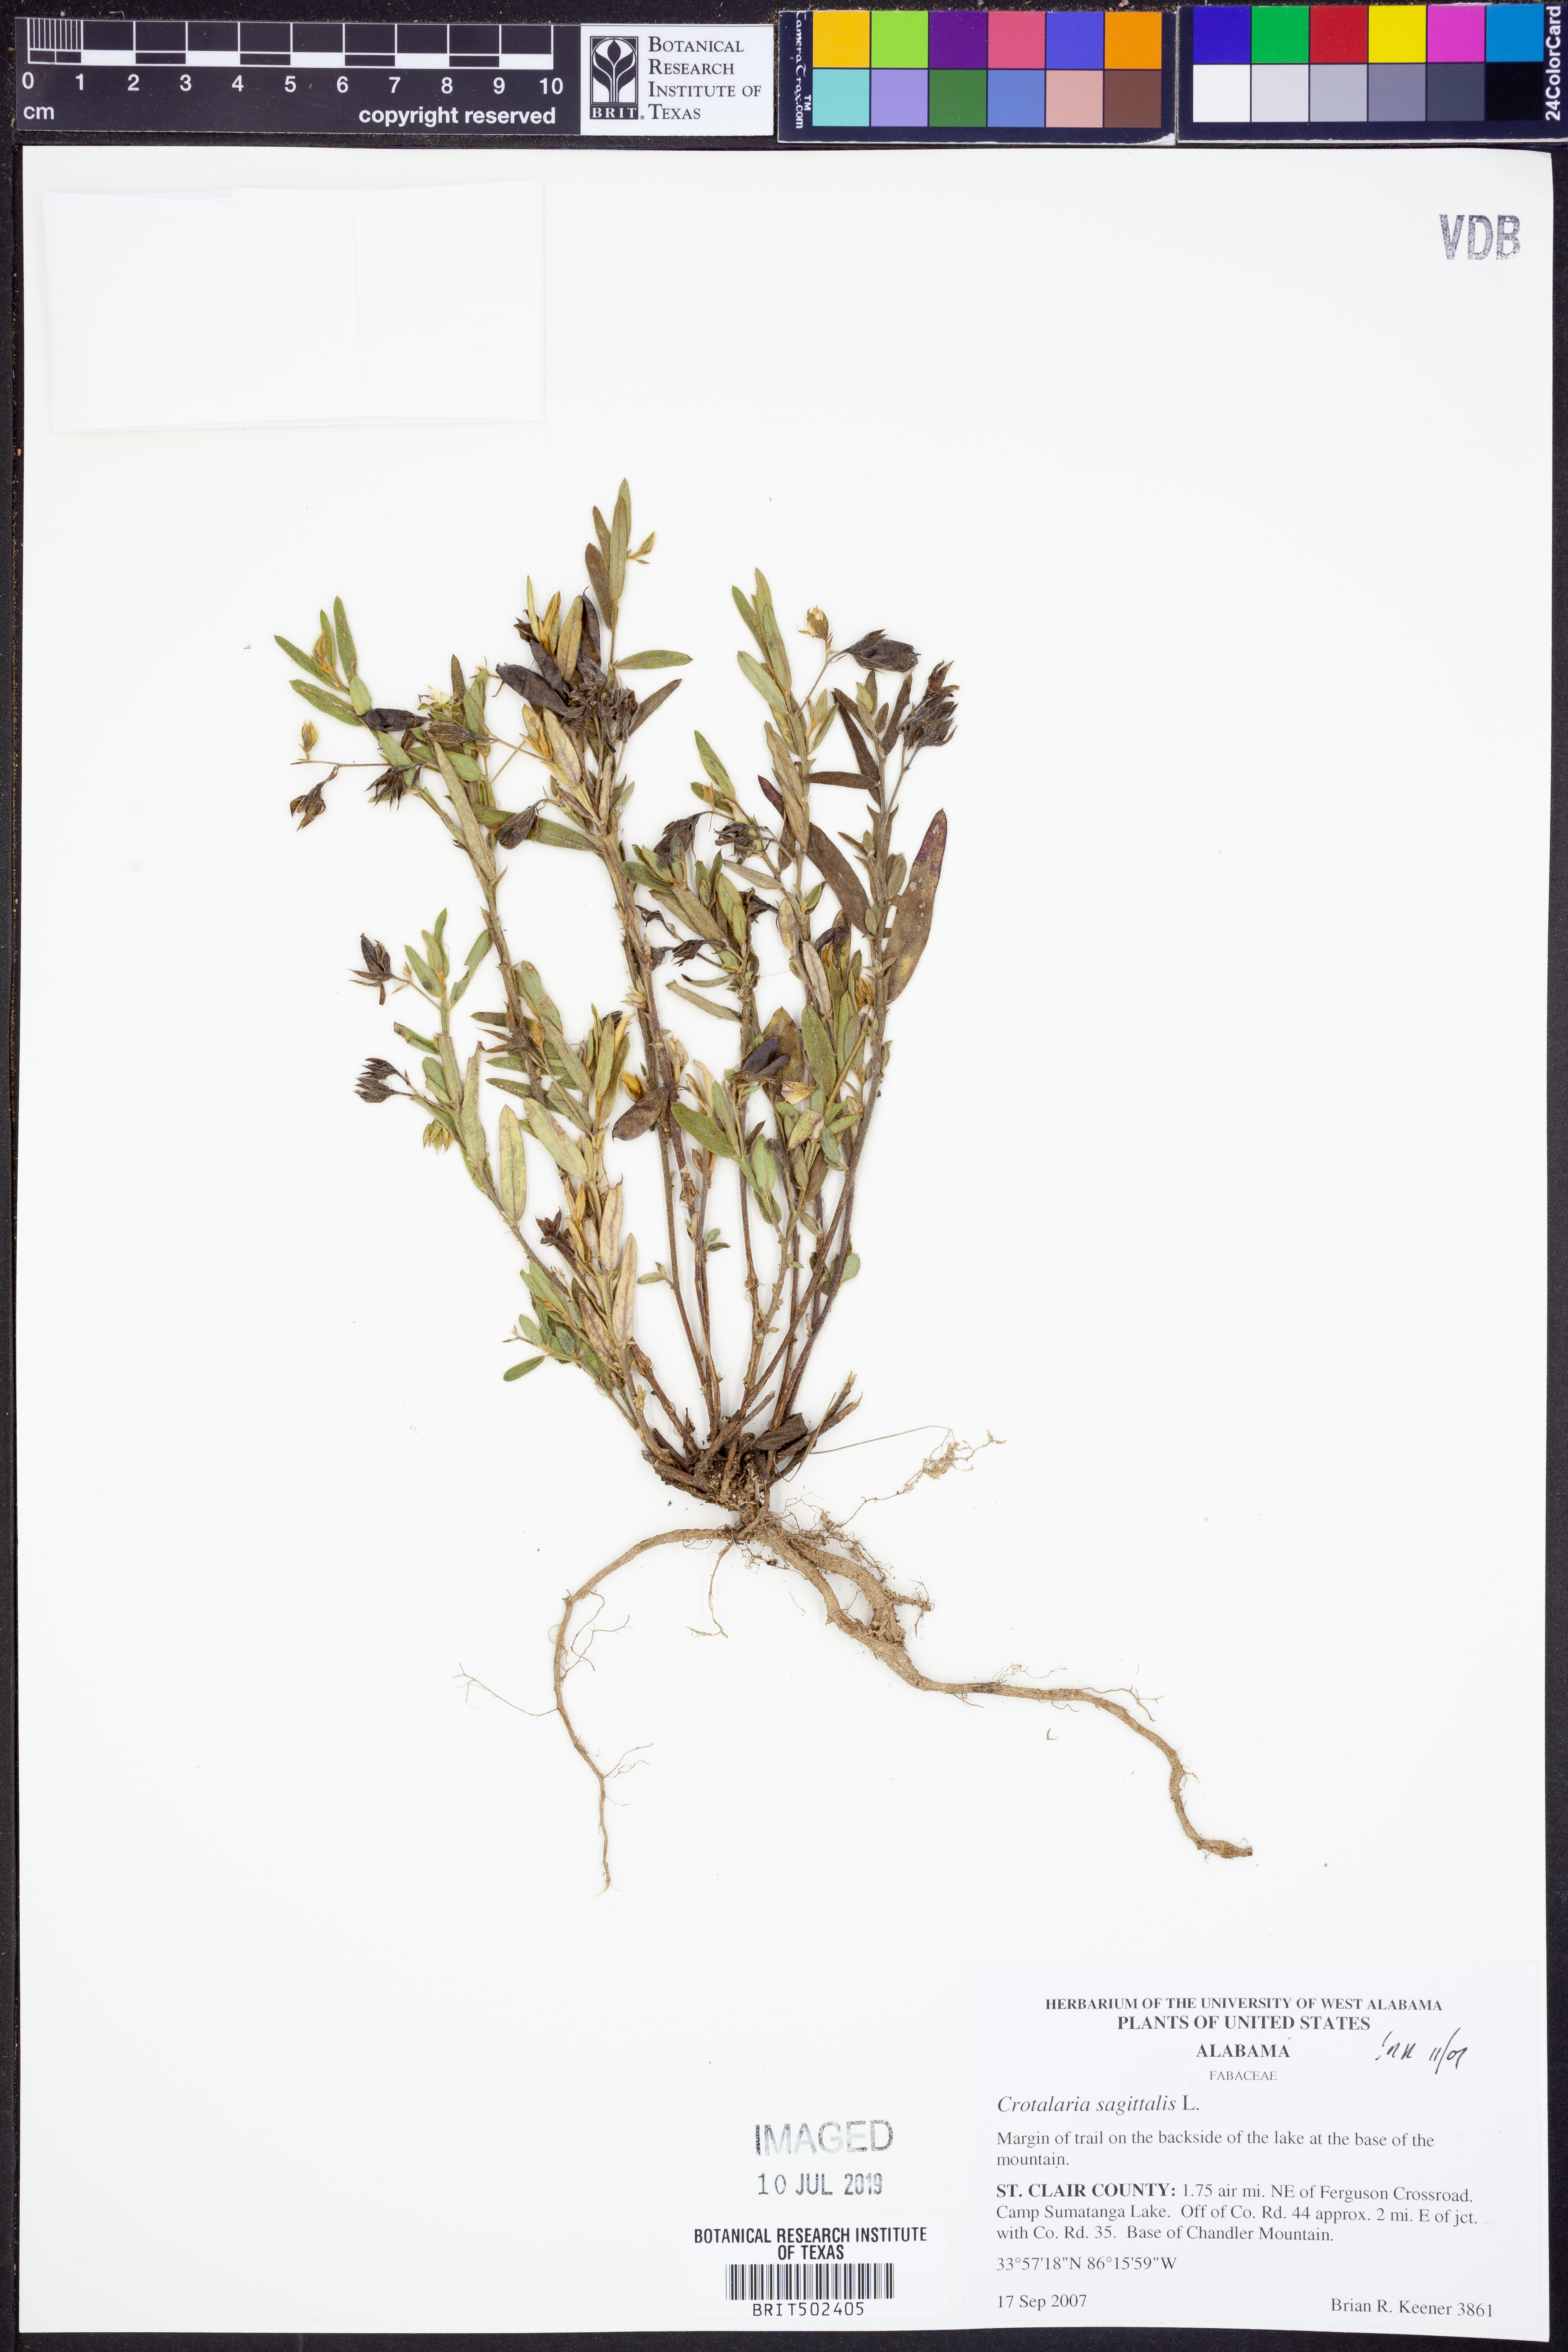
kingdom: Plantae
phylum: Tracheophyta
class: Magnoliopsida
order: Fabales
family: Fabaceae
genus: Crotalaria
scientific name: Crotalaria sagittalis
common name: Arrowhead rattlebox
